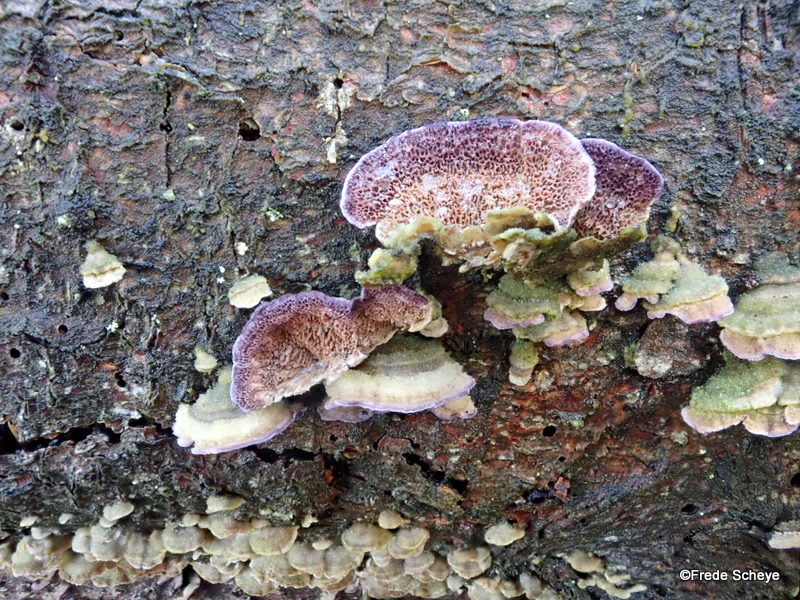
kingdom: Fungi
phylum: Basidiomycota
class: Agaricomycetes
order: Hymenochaetales
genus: Trichaptum
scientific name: Trichaptum abietinum
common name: almindelig violporesvamp
